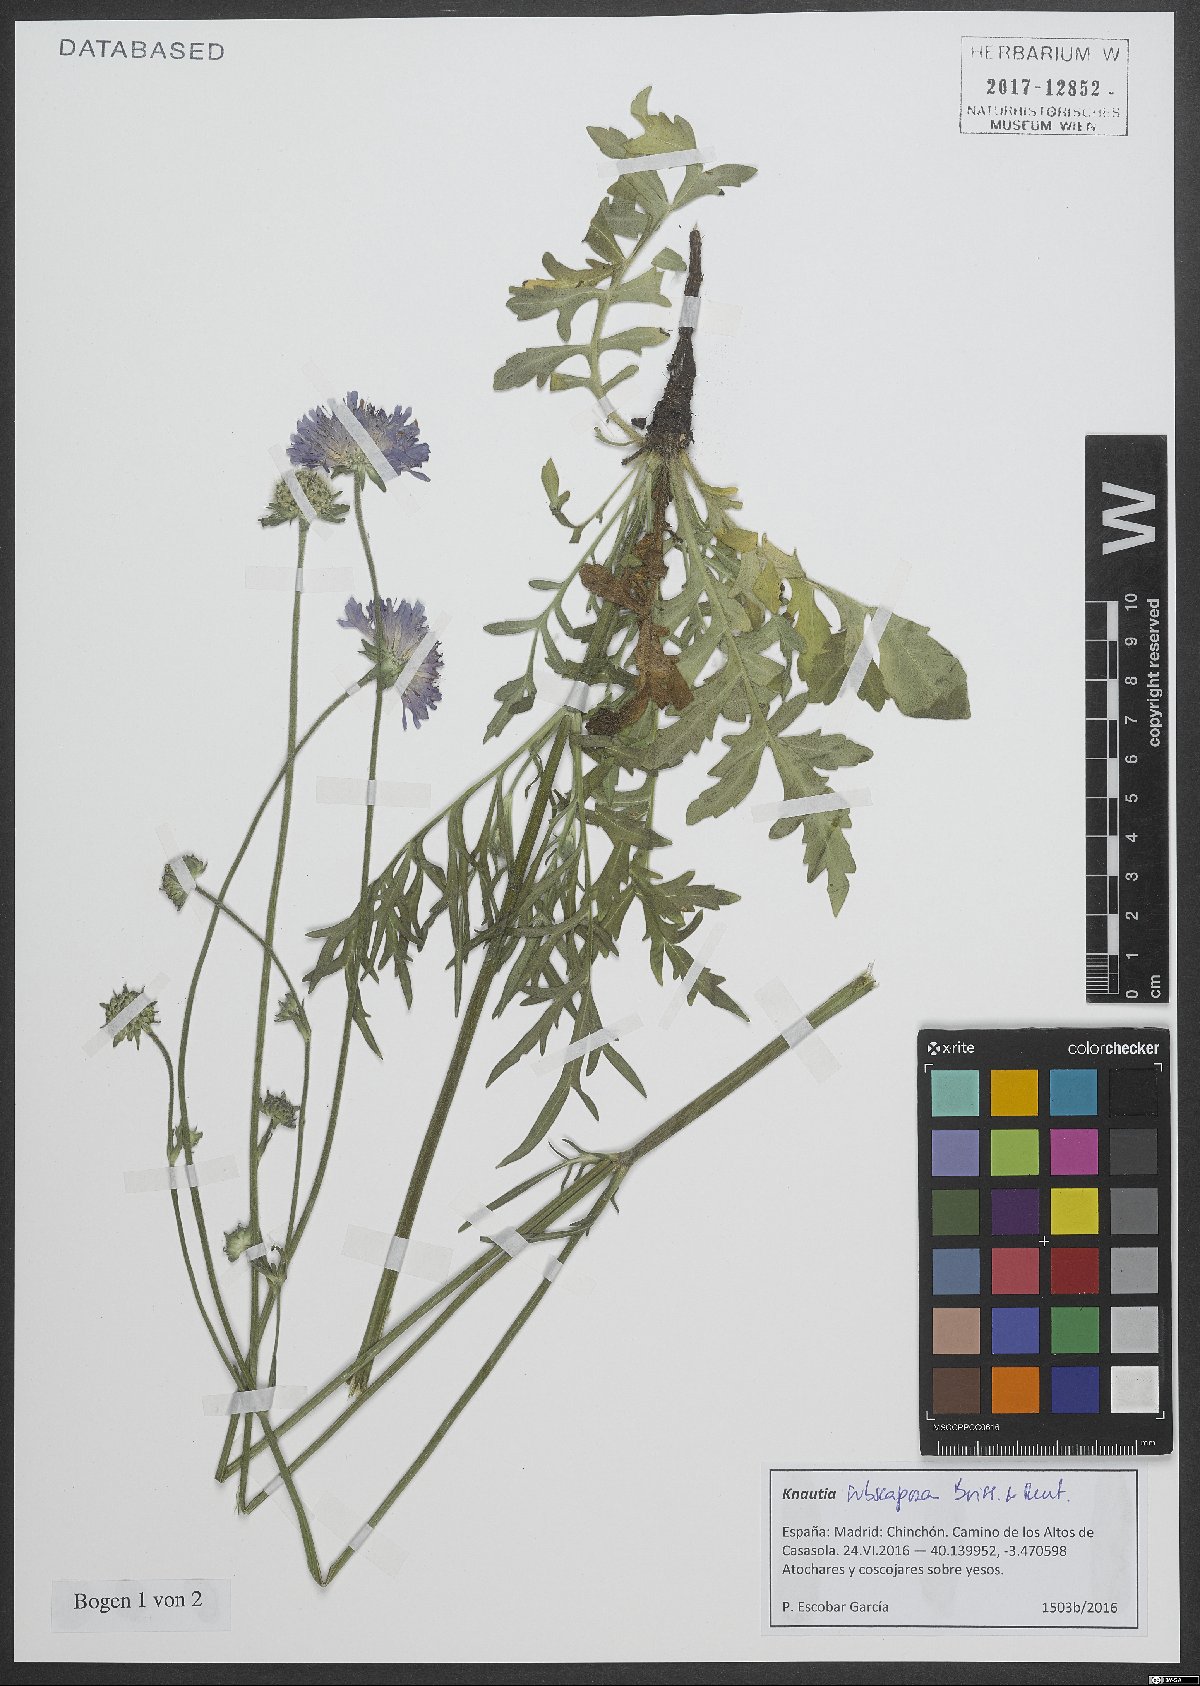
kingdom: Plantae
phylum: Tracheophyta
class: Magnoliopsida
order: Dipsacales
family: Caprifoliaceae
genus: Knautia
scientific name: Knautia subscaposa
